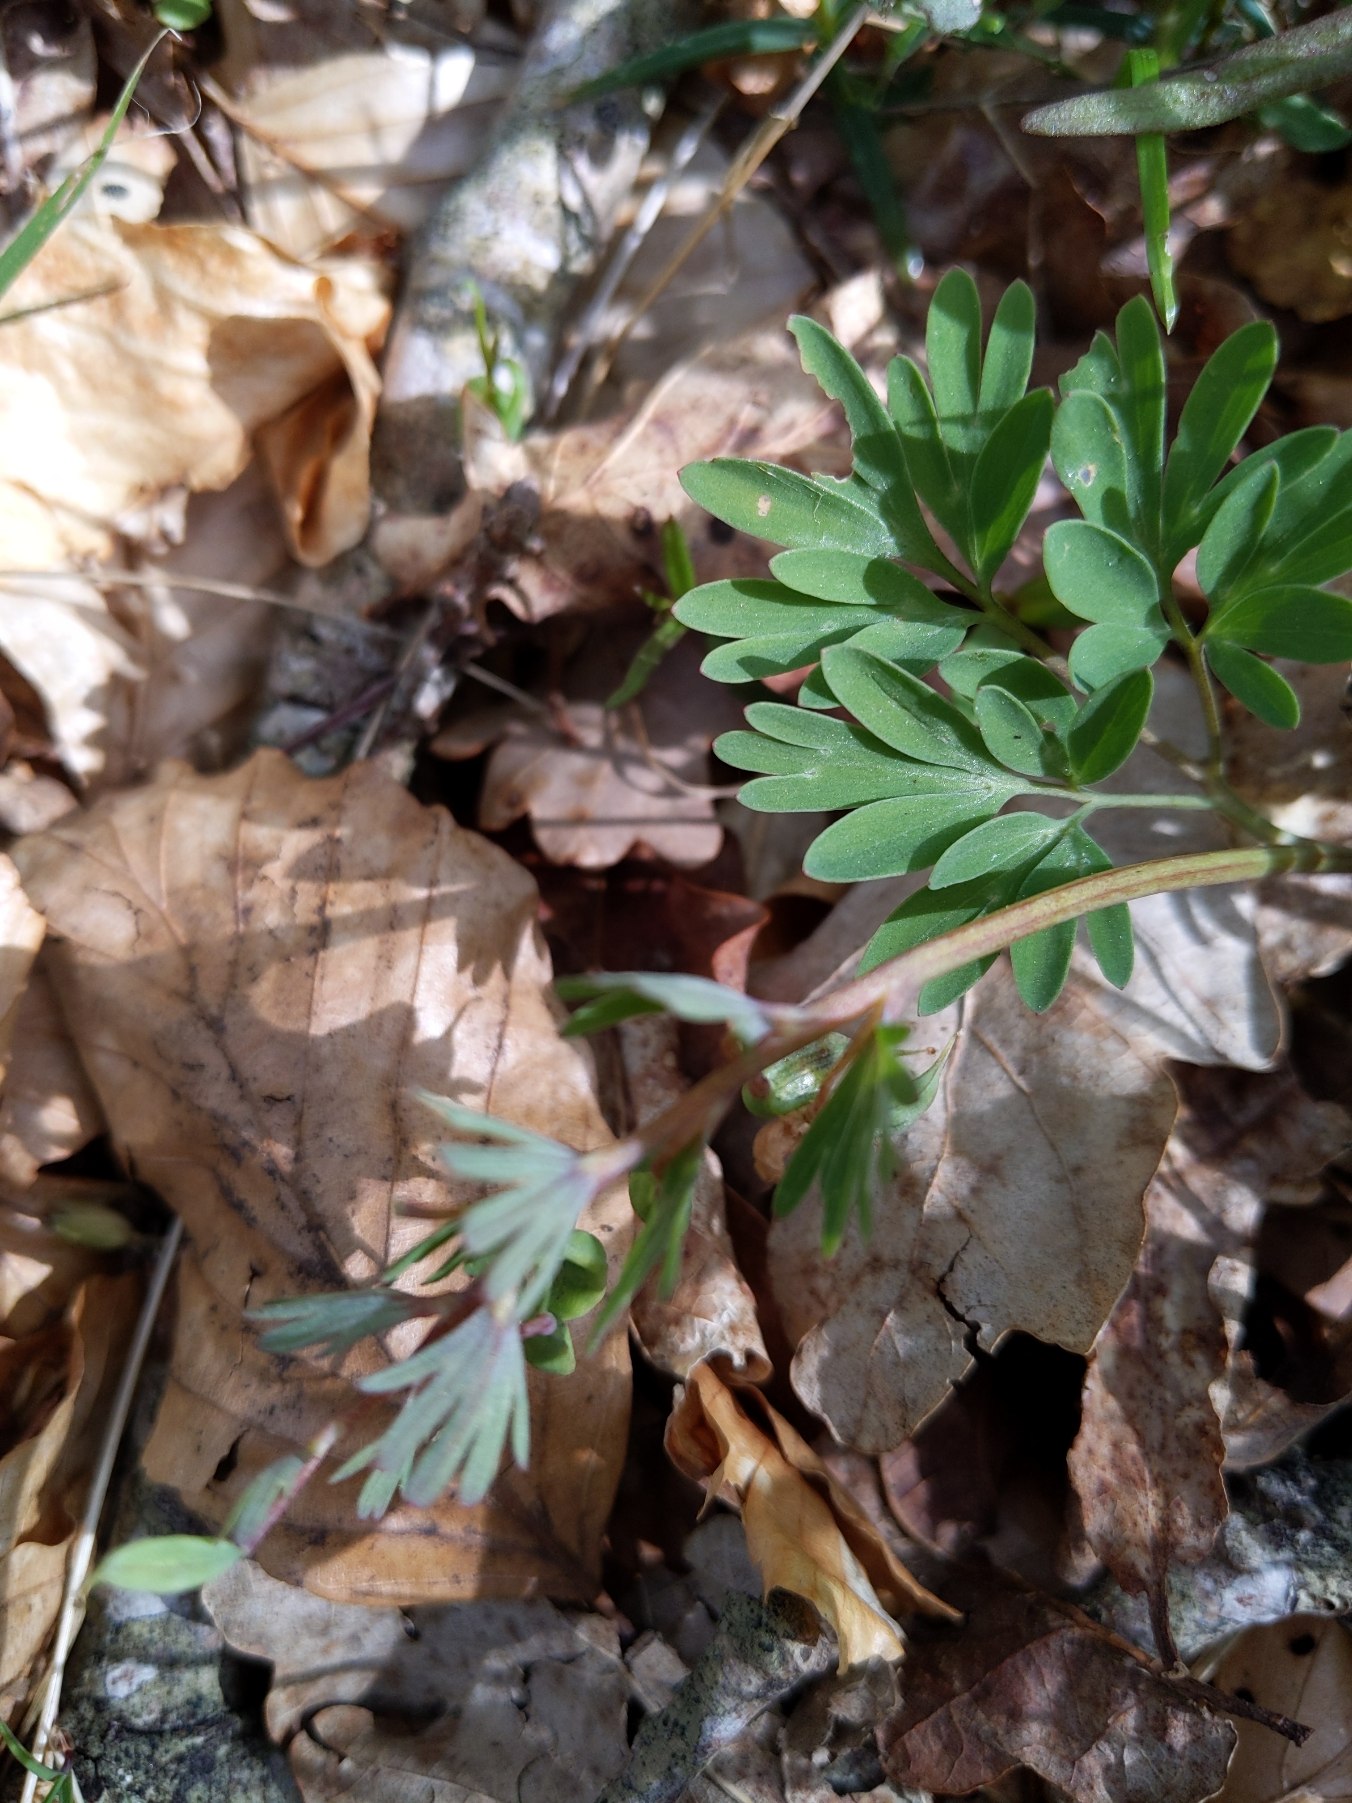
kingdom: Plantae
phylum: Tracheophyta
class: Magnoliopsida
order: Ranunculales
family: Papaveraceae
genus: Corydalis
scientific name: Corydalis solida
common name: Langstilket lærkespore
